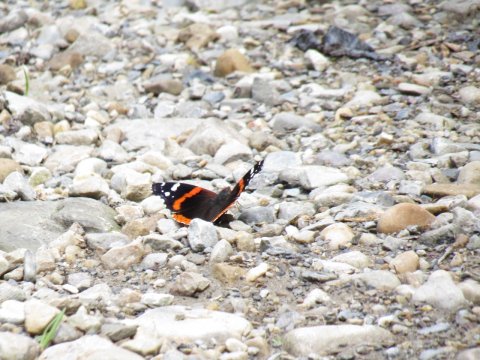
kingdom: Animalia
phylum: Arthropoda
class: Insecta
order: Lepidoptera
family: Nymphalidae
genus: Vanessa
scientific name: Vanessa atalanta
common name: Red Admiral
